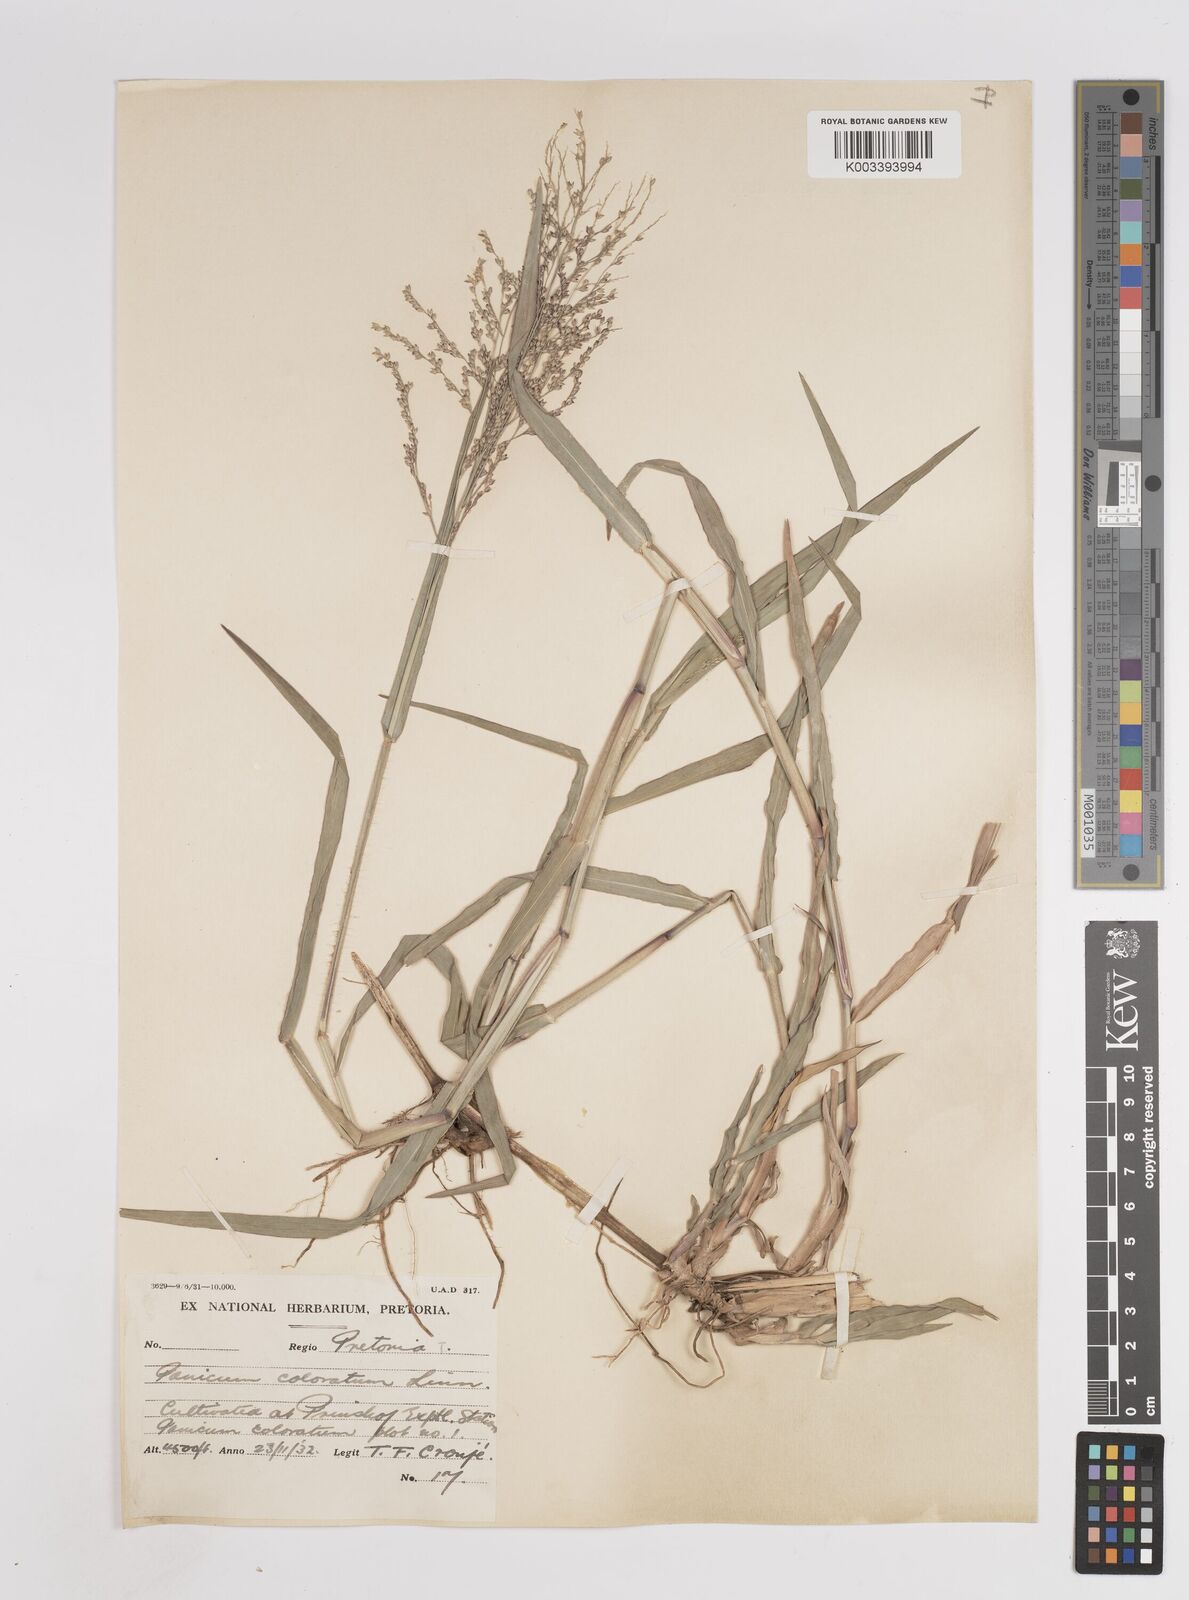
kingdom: Plantae
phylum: Tracheophyta
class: Liliopsida
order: Poales
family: Poaceae
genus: Panicum
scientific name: Panicum coloratum
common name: Kleingrass
